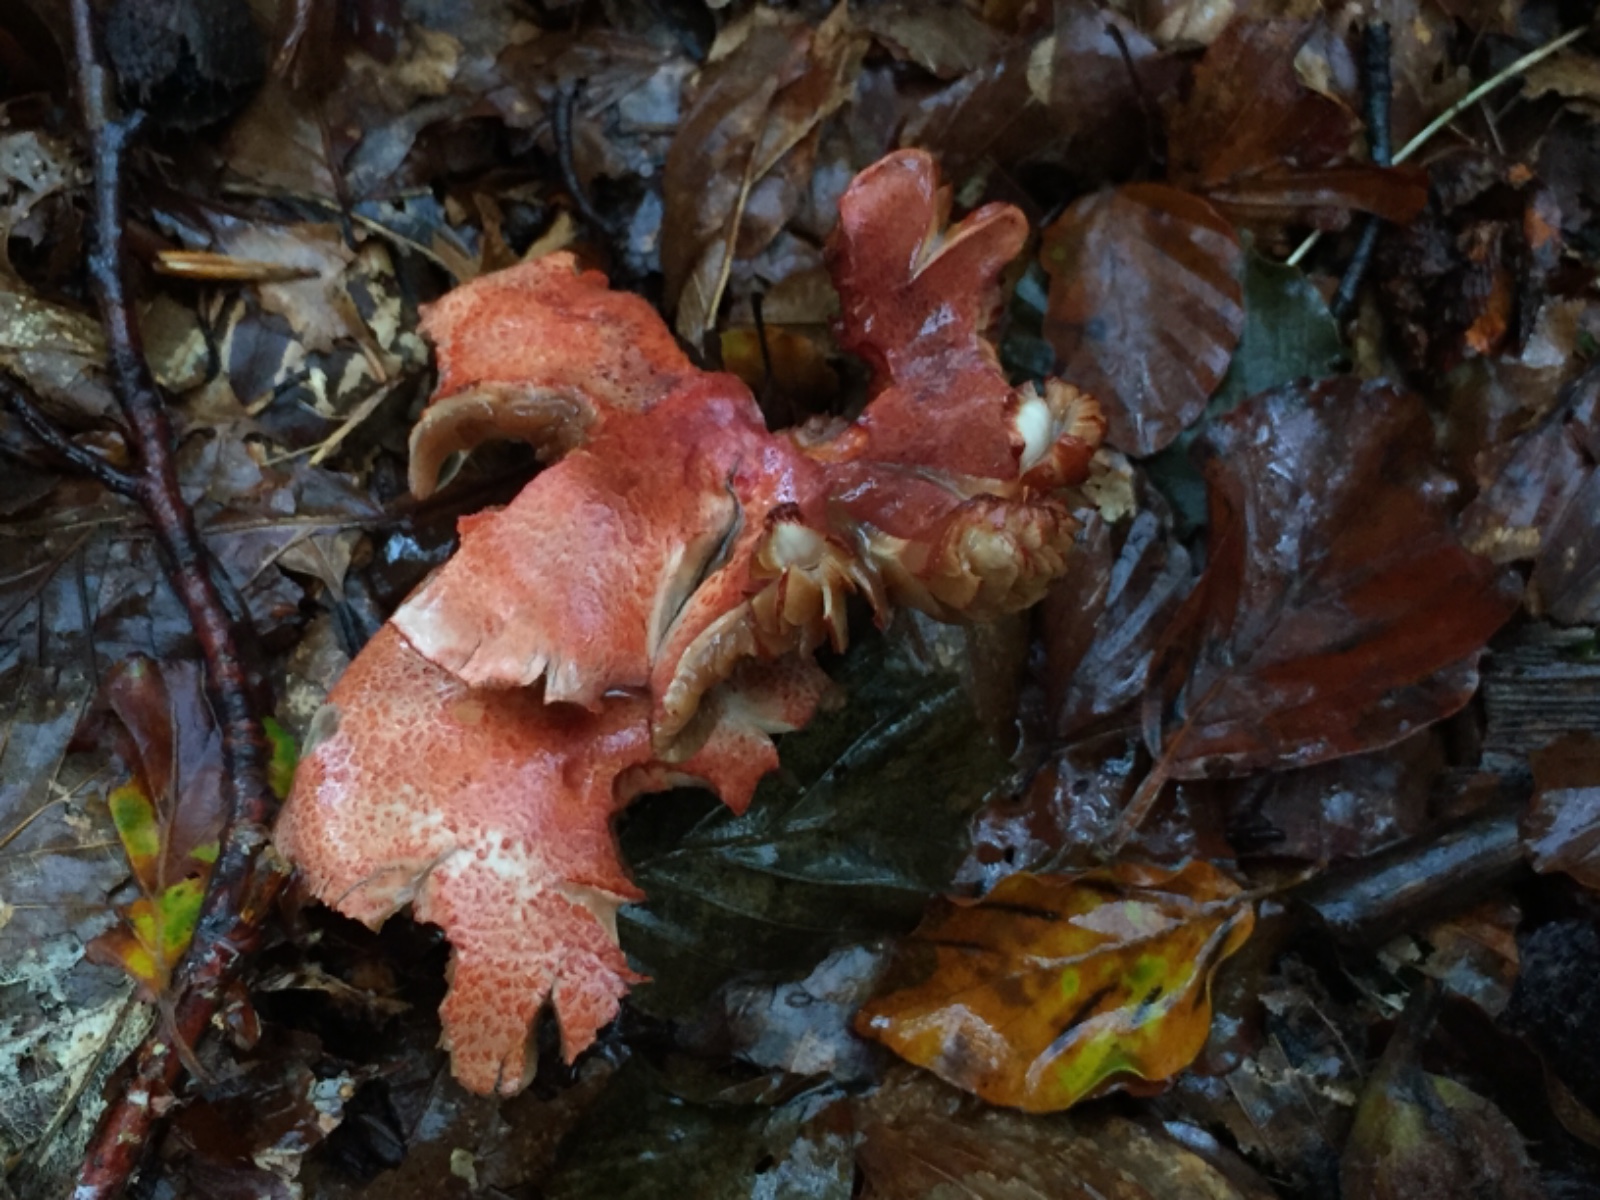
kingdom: Fungi
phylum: Basidiomycota
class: Agaricomycetes
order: Agaricales
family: Cortinariaceae
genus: Cortinarius
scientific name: Cortinarius bolaris
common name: cinnoberskællet slørhat
